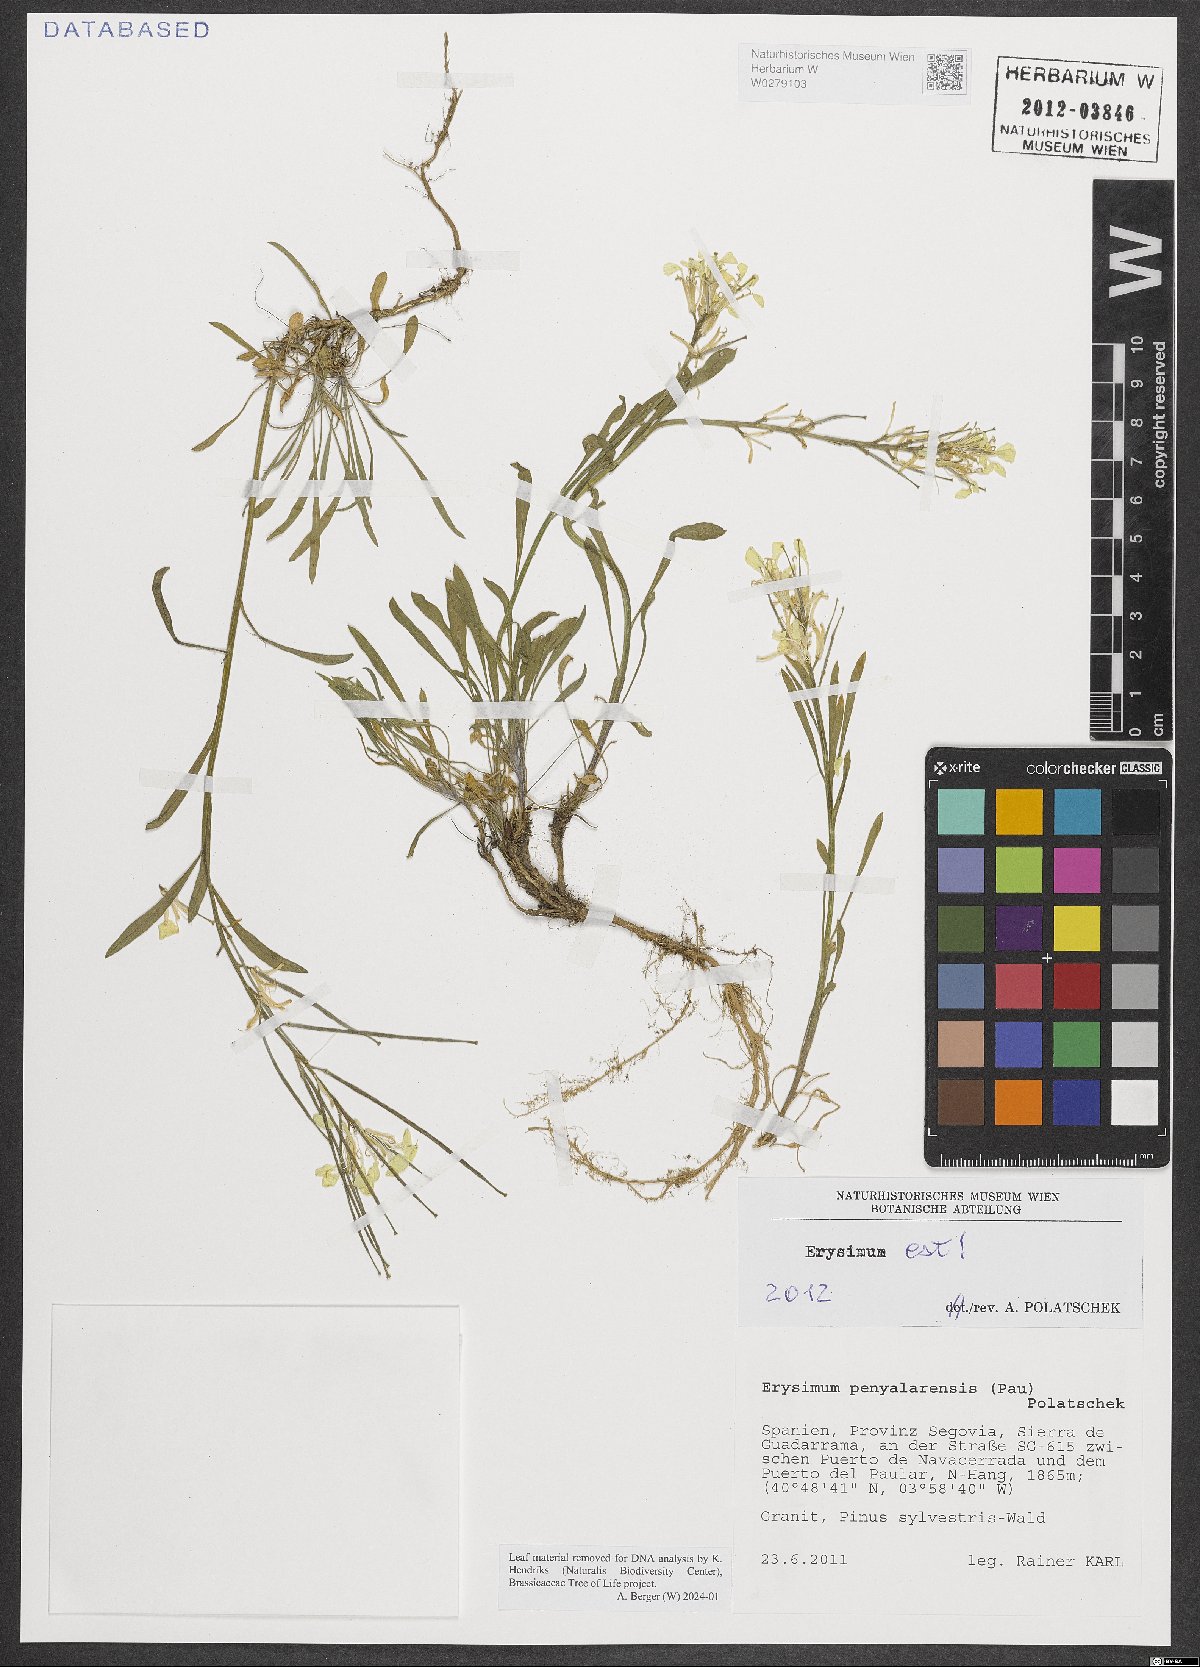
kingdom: Plantae
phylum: Tracheophyta
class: Magnoliopsida
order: Brassicales
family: Brassicaceae
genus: Erysimum
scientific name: Erysimum penyalarense
